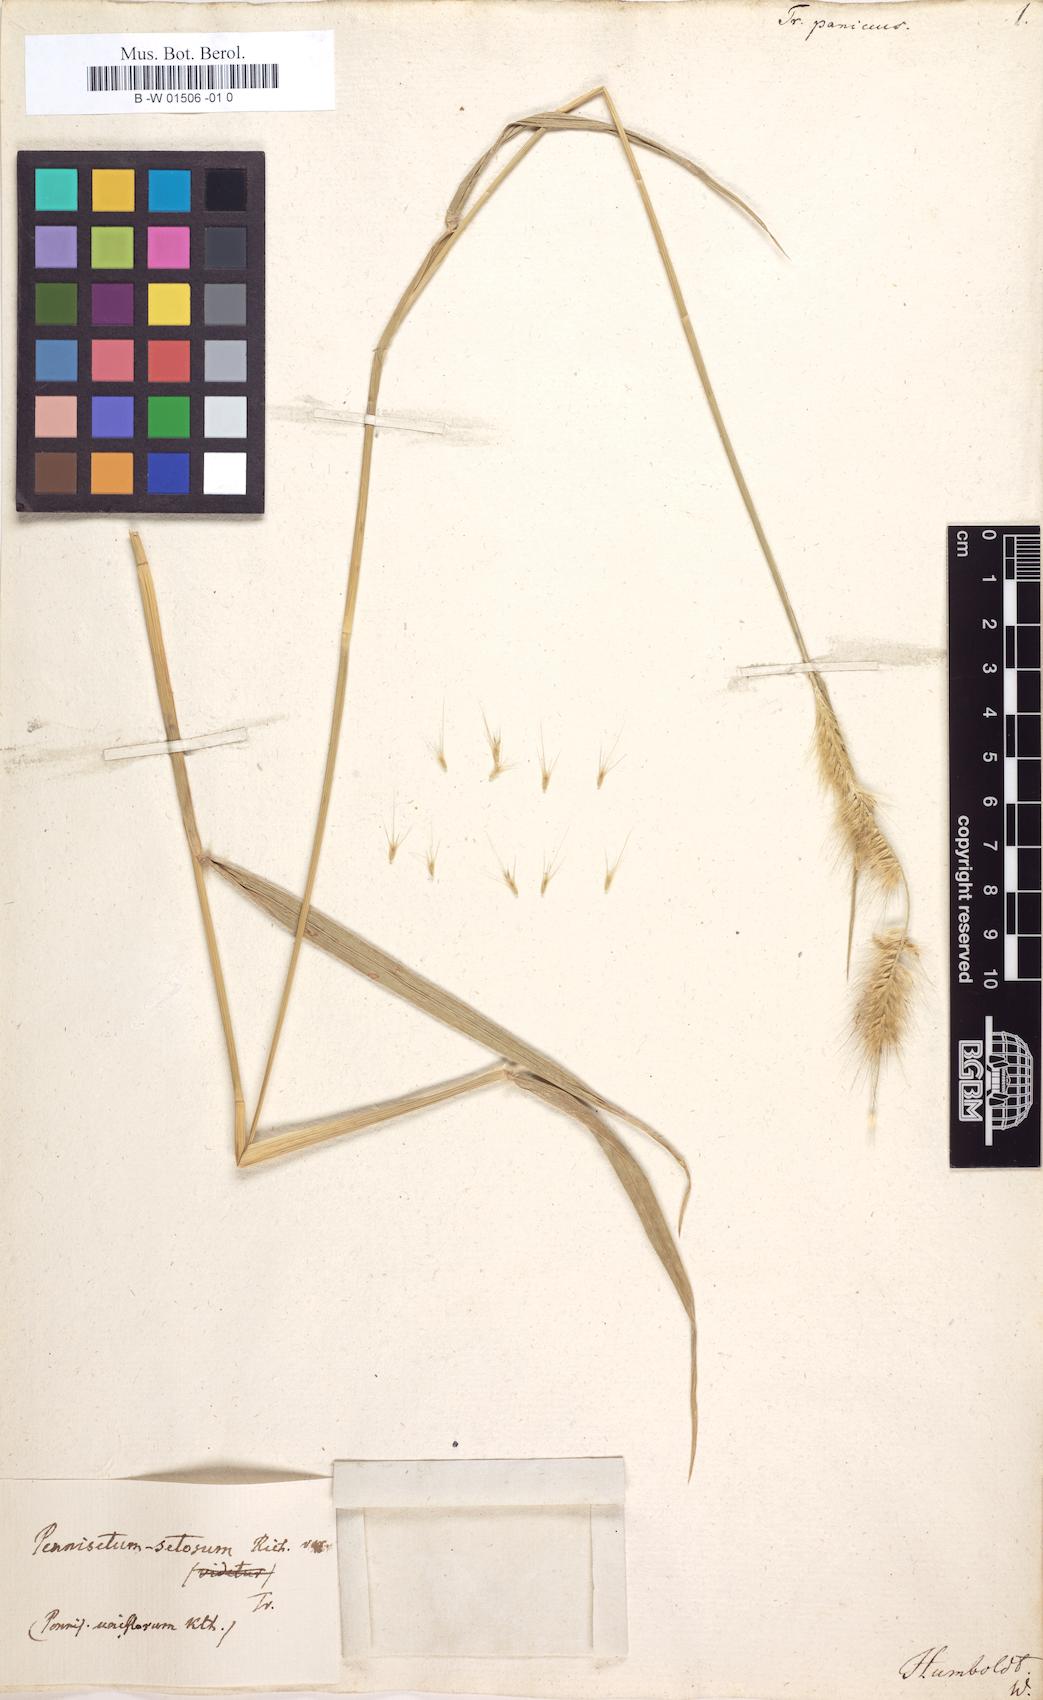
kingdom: Plantae
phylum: Tracheophyta
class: Magnoliopsida
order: Malpighiales
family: Salicaceae
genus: Trichostephanus
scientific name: Trichostephanus
